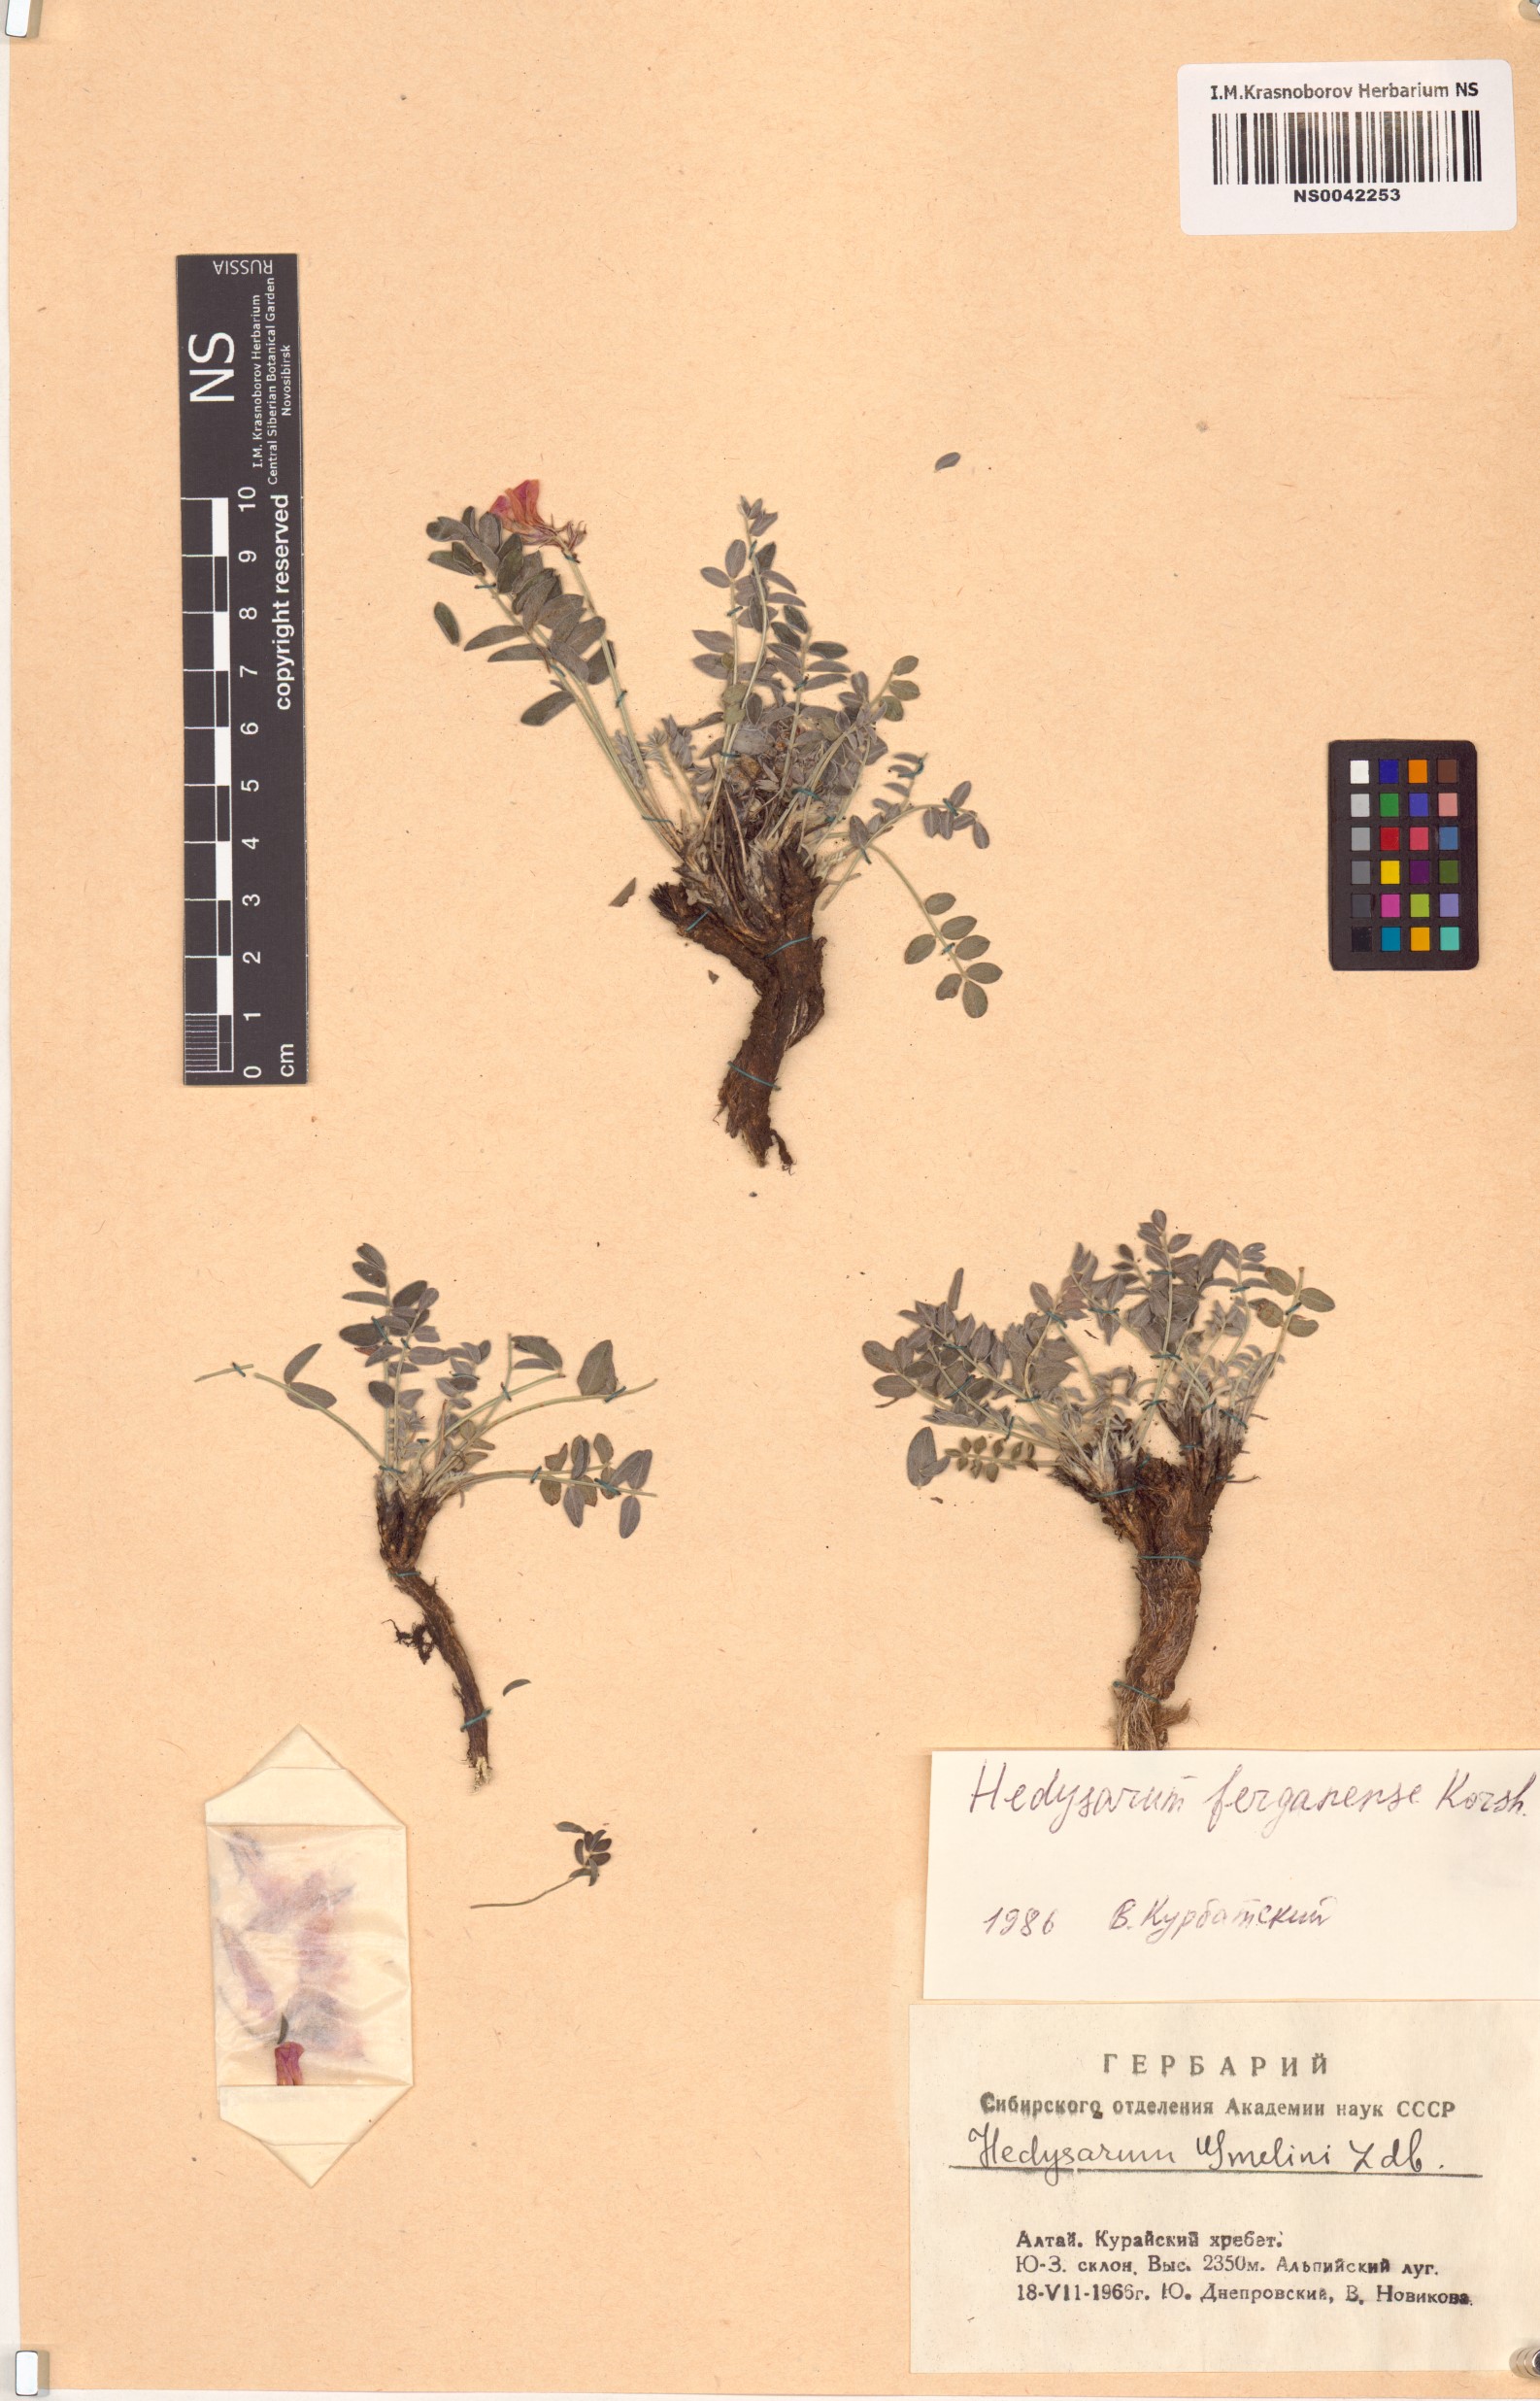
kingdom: Plantae
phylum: Tracheophyta
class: Magnoliopsida
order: Fabales
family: Fabaceae
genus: Hedysarum
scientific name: Hedysarum ferganense
